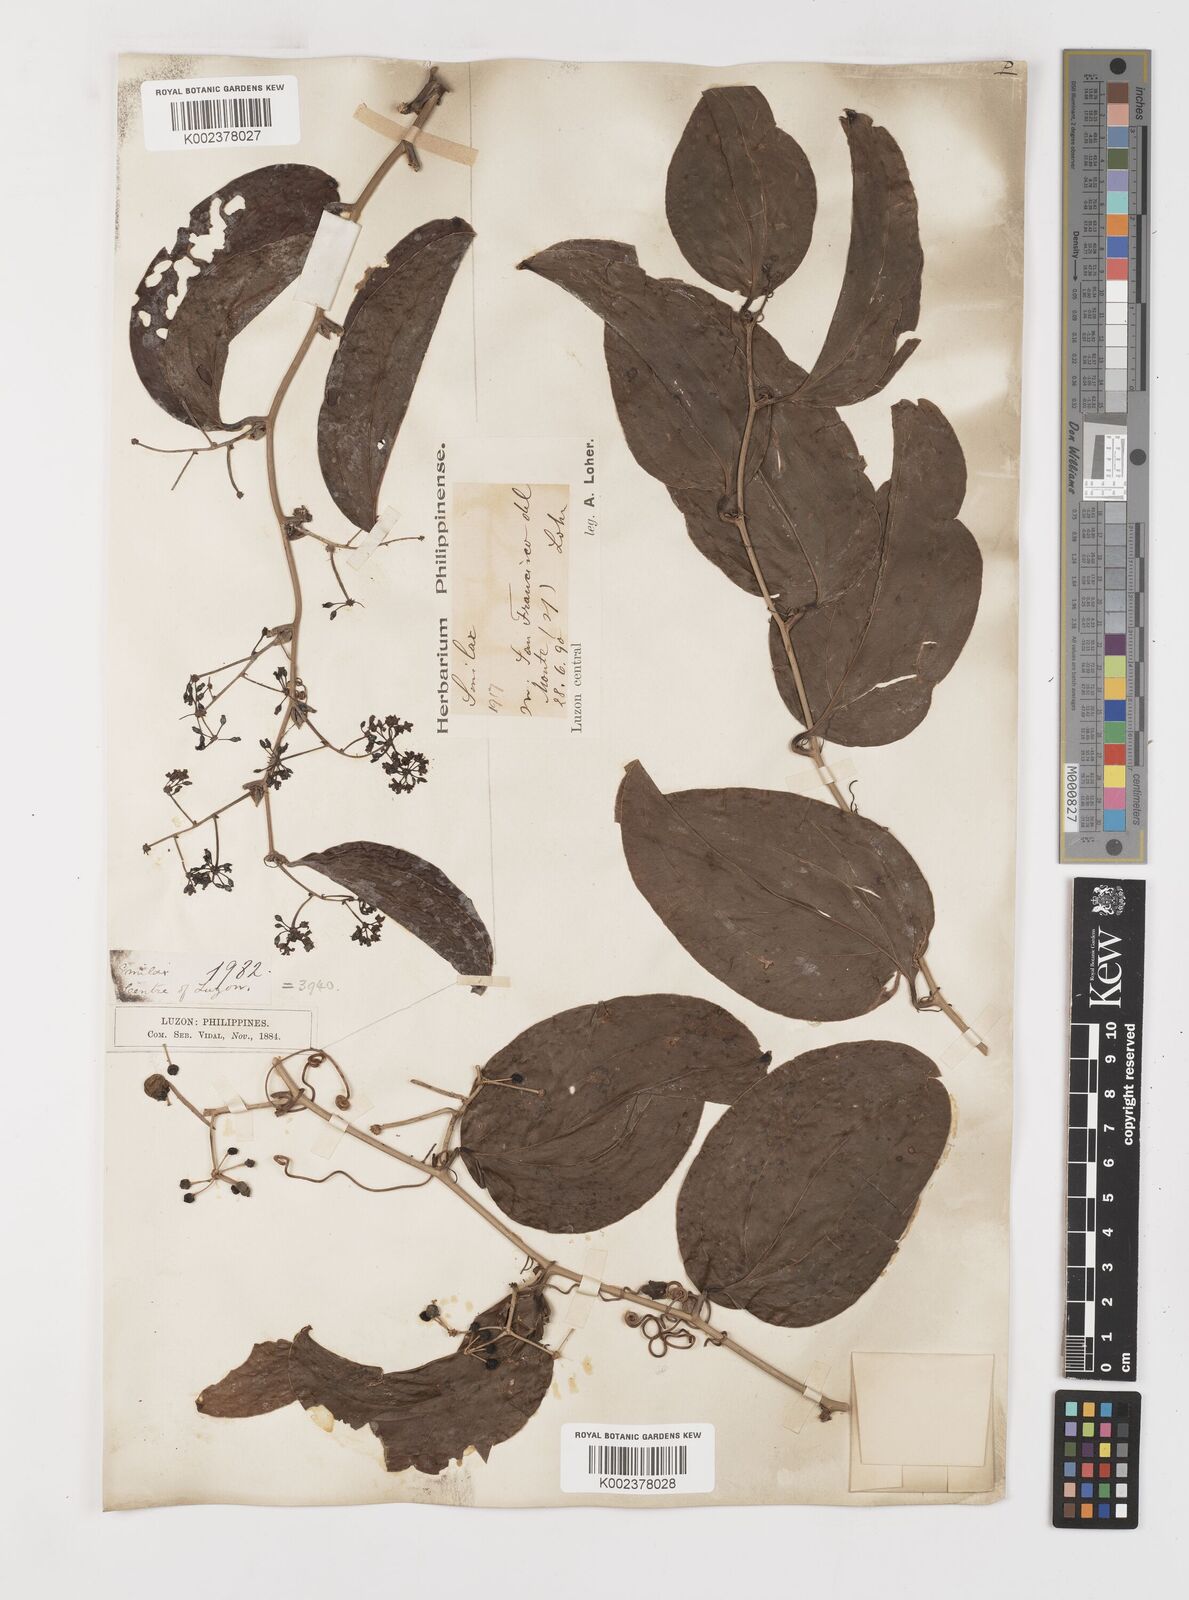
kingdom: Plantae
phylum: Tracheophyta
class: Liliopsida
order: Liliales
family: Smilacaceae
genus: Smilax
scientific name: Smilax bracteata
